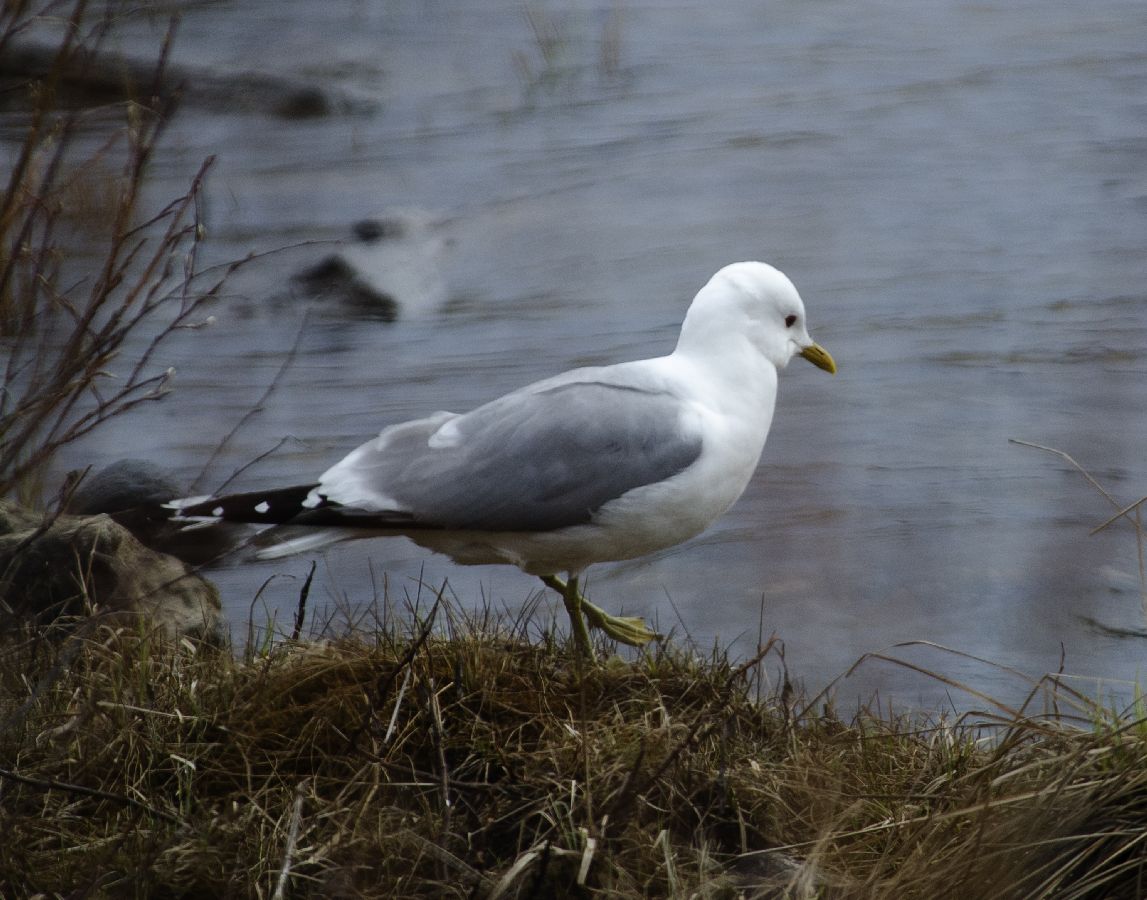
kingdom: Animalia
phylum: Chordata
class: Aves
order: Charadriiformes
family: Laridae
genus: Larus
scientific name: Larus canus
